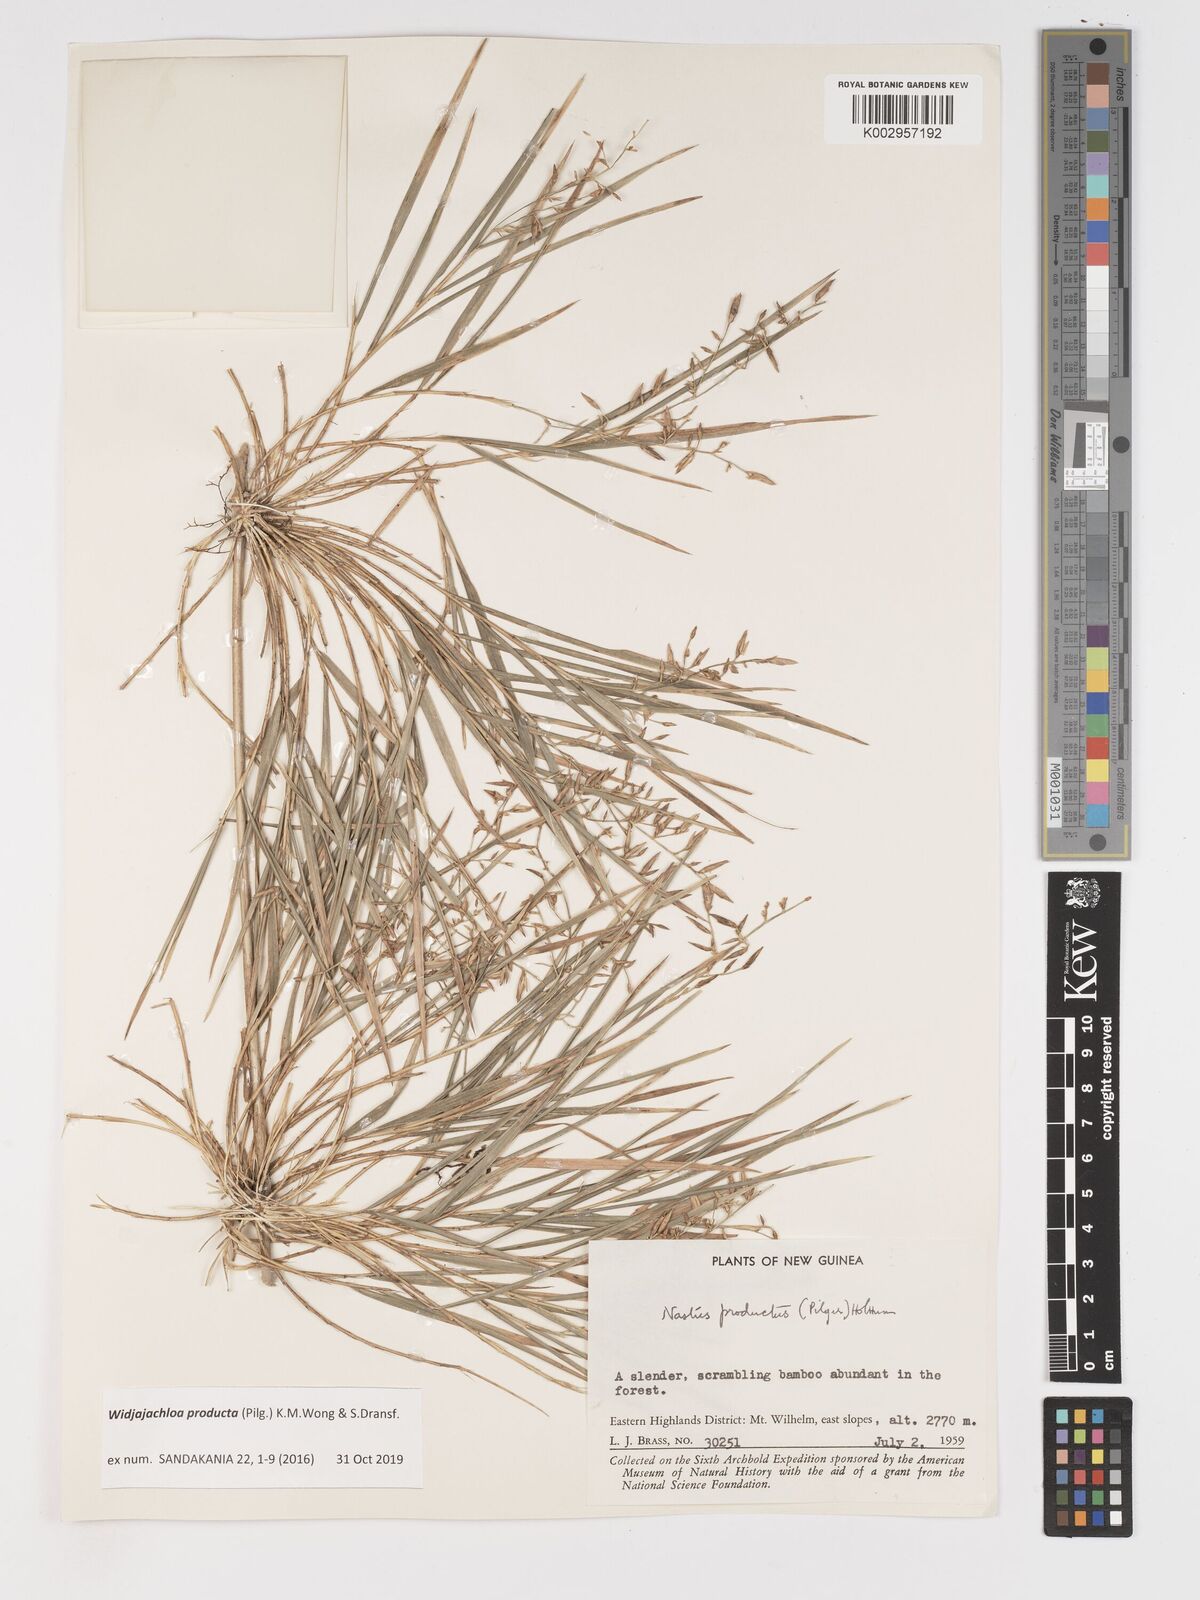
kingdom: Plantae
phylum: Tracheophyta
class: Liliopsida
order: Poales
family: Poaceae
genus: Widjajachloa
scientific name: Widjajachloa producta
